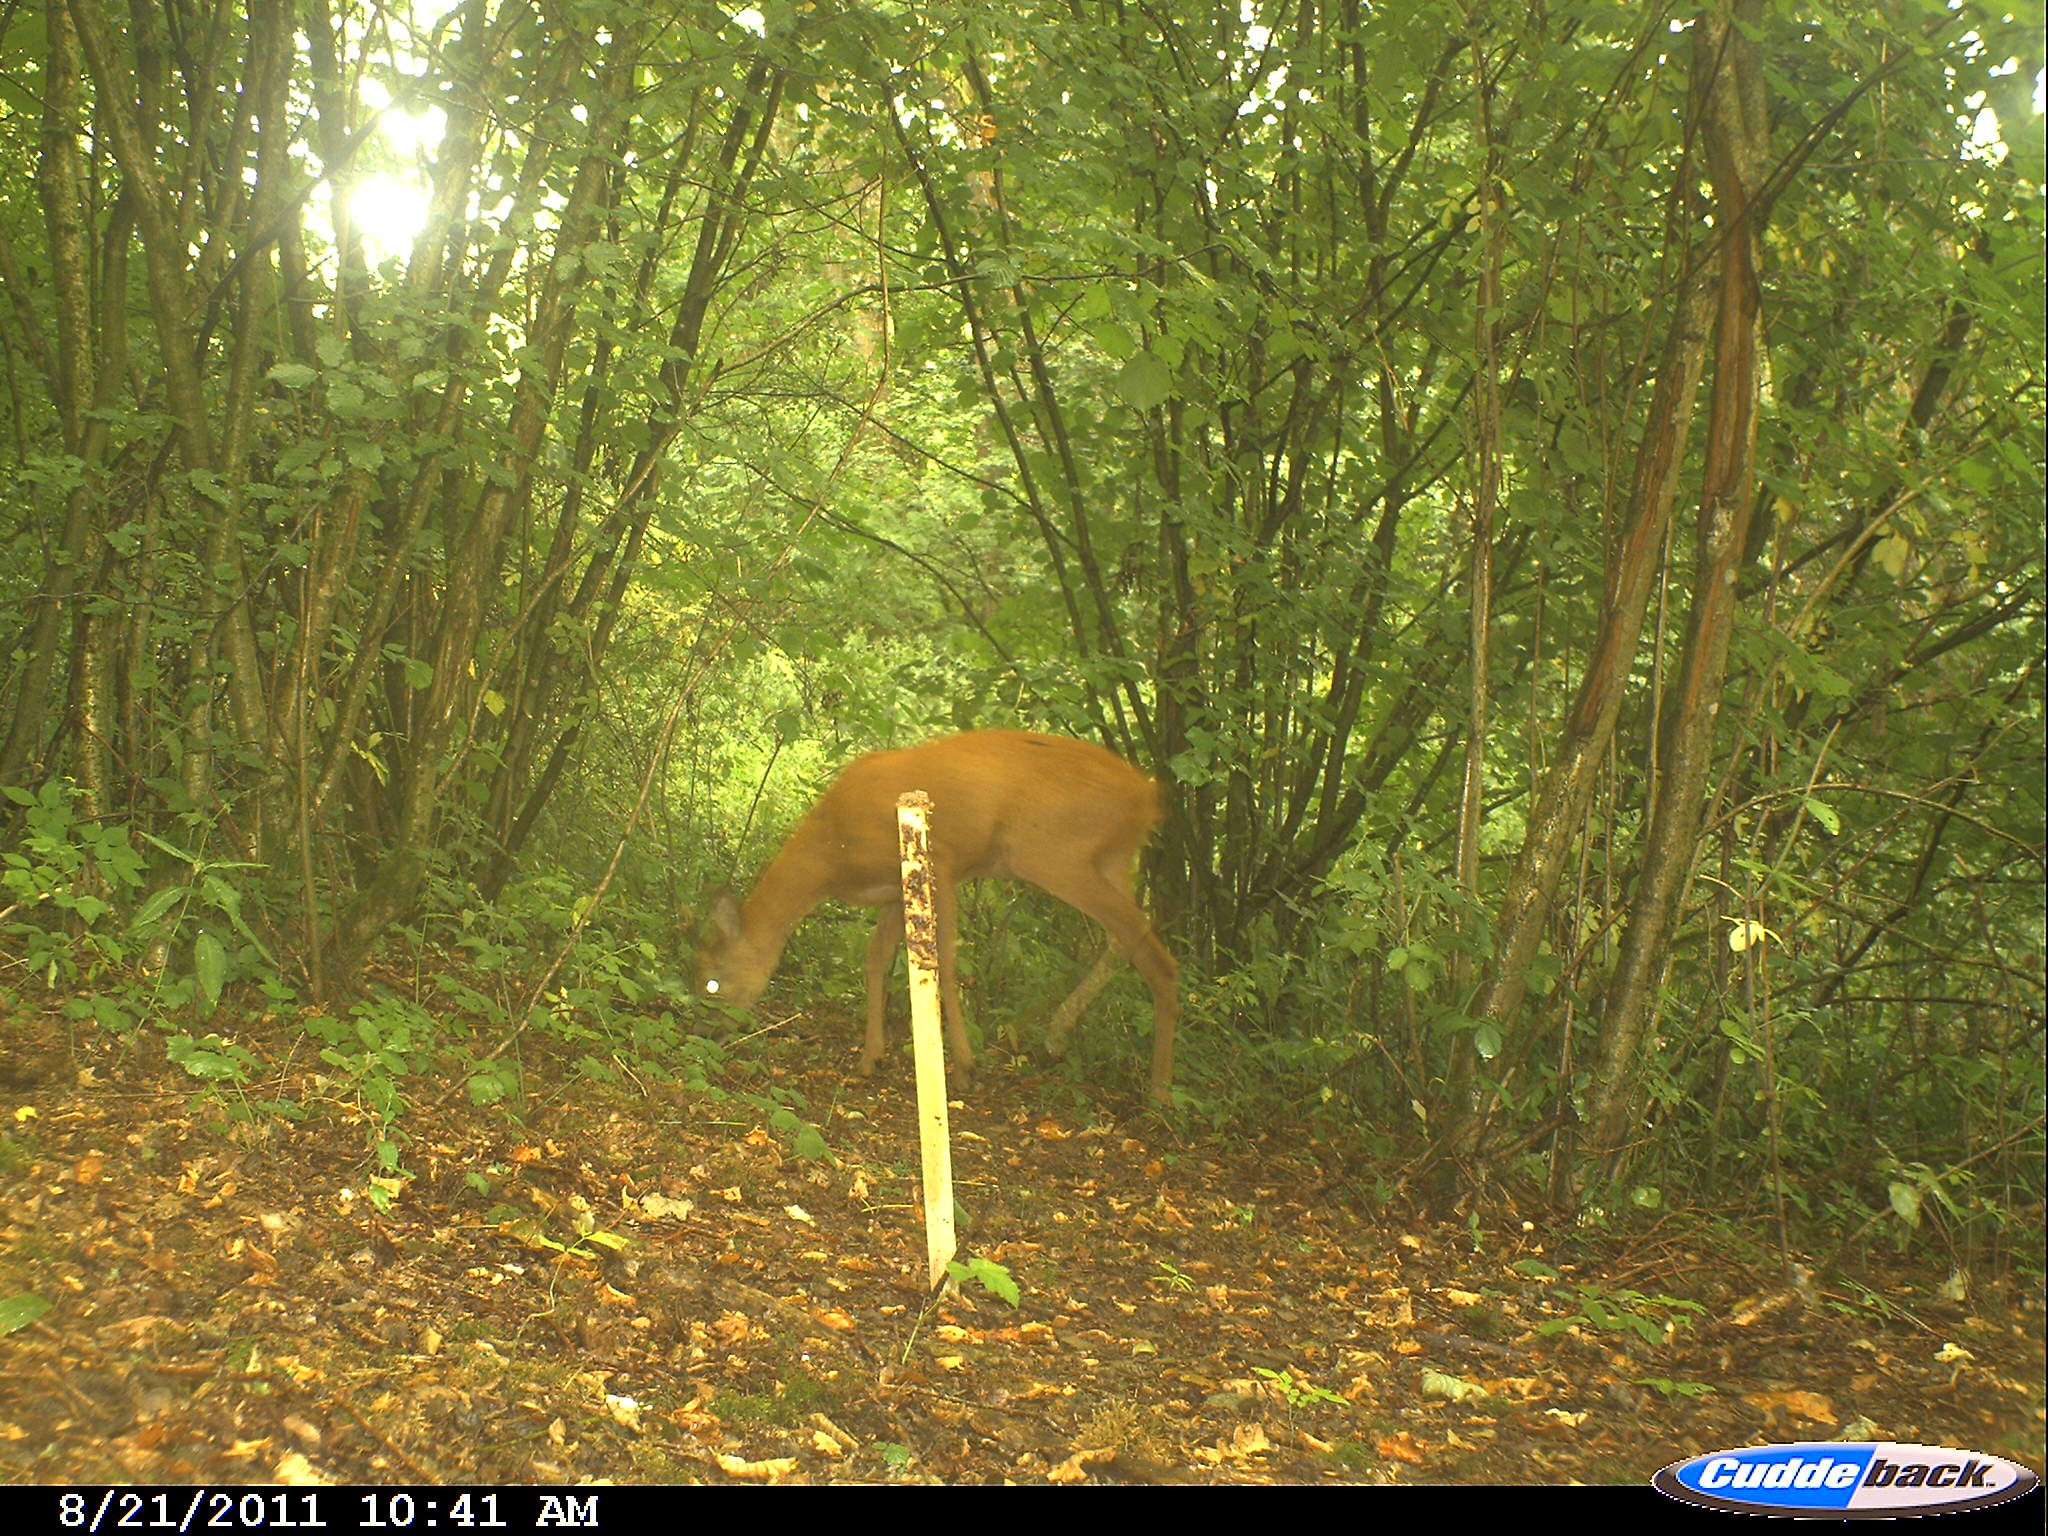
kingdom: Animalia
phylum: Chordata
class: Mammalia
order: Artiodactyla
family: Cervidae
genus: Capreolus
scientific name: Capreolus capreolus
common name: Western roe deer
